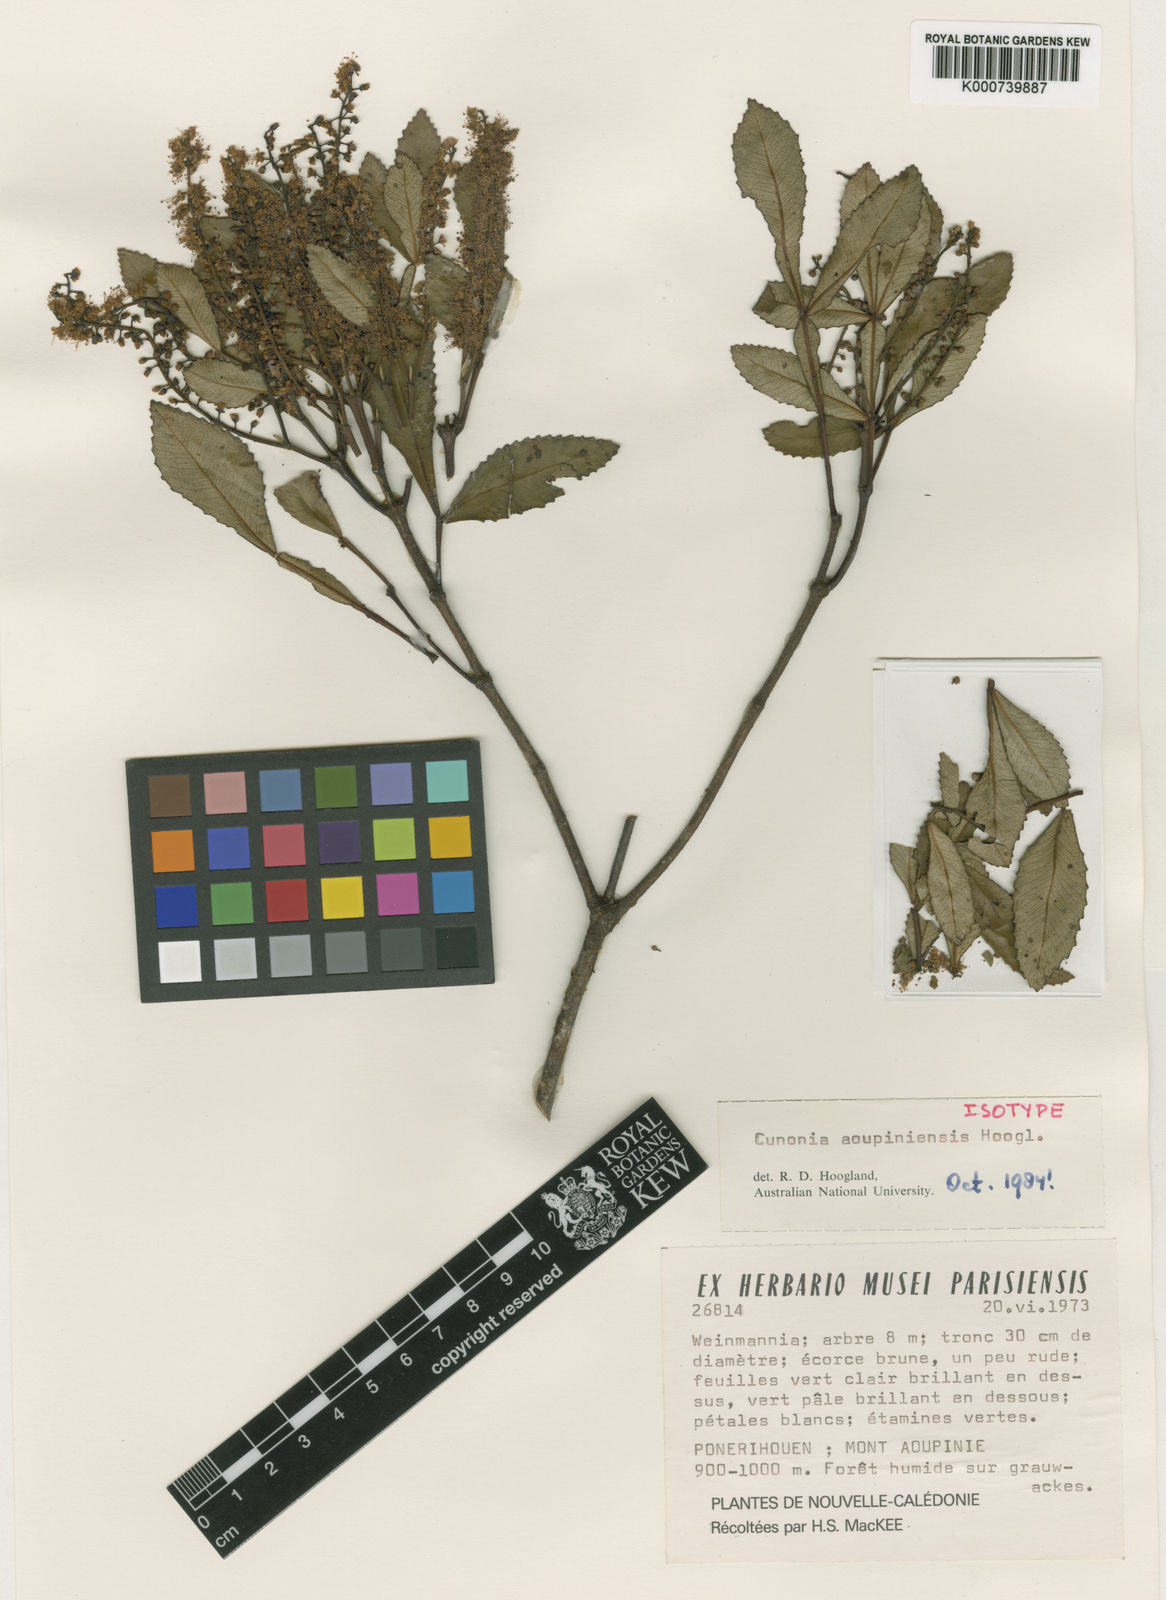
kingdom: Plantae
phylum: Tracheophyta
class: Magnoliopsida
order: Oxalidales
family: Cunoniaceae
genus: Cunonia
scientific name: Cunonia aoupiniensis
